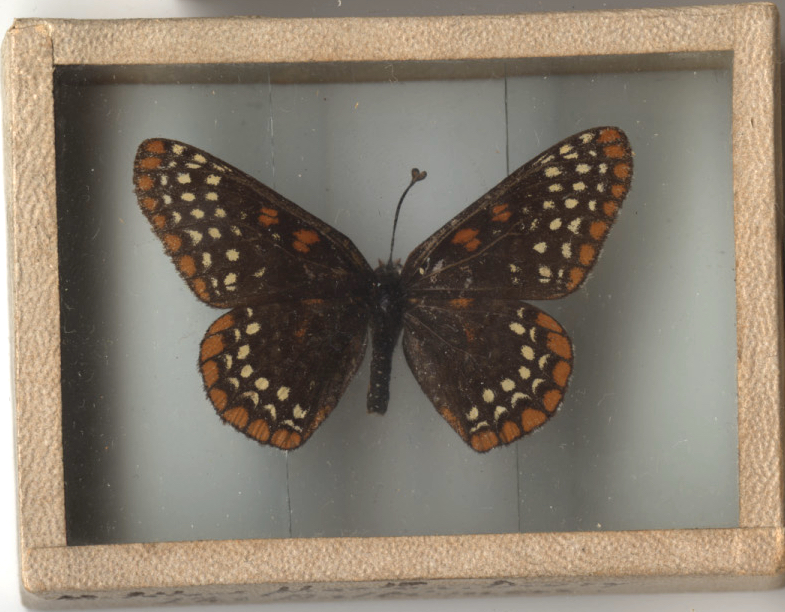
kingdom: Animalia
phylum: Arthropoda
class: Insecta
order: Lepidoptera
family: Nymphalidae
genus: Euphydryas
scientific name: Euphydryas phaeton
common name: Baltimore Checkerspot
